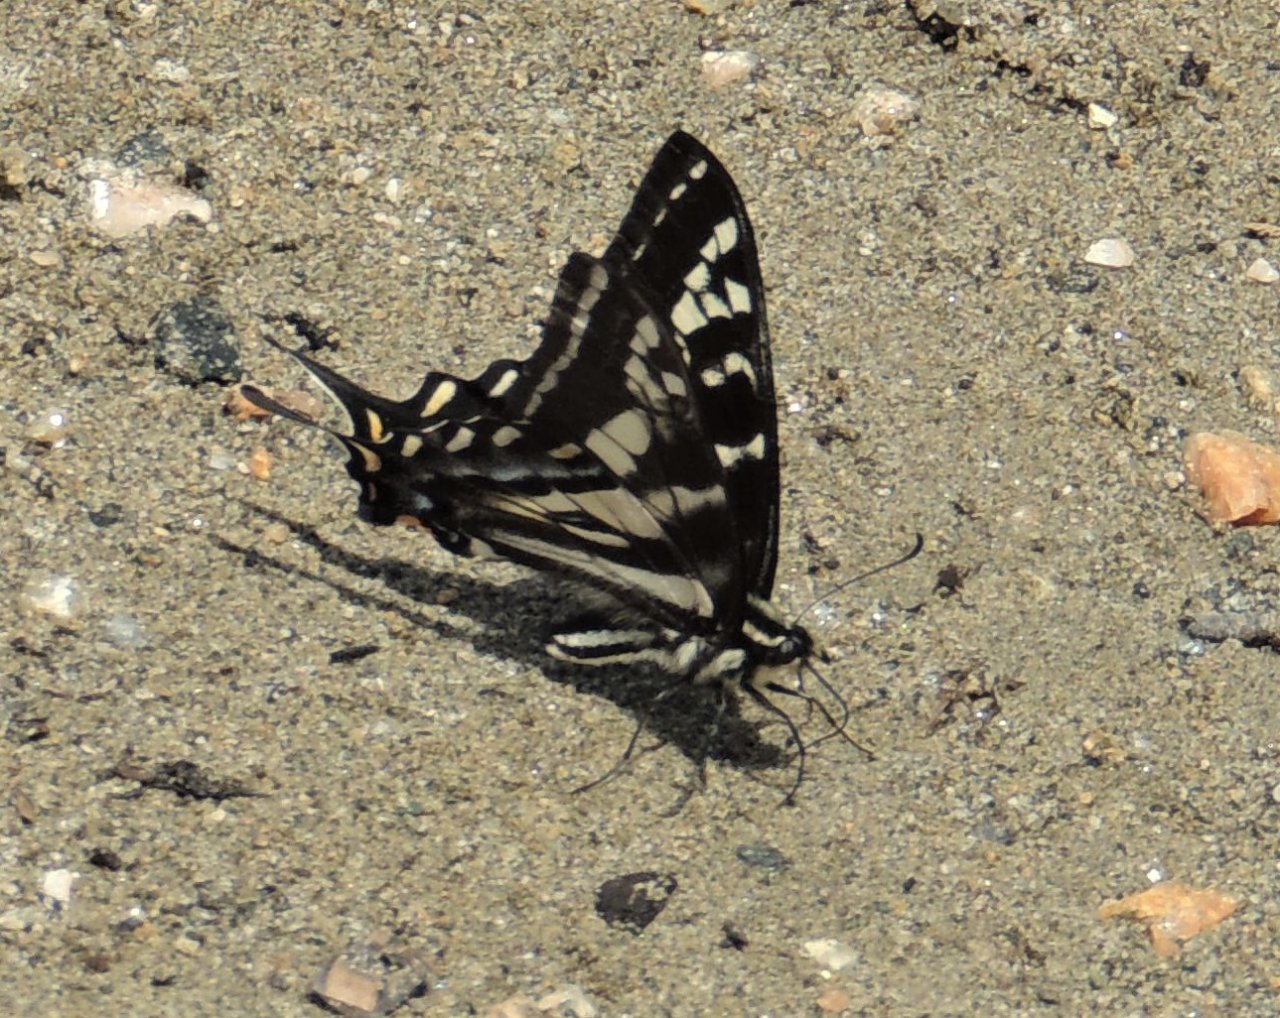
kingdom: Animalia
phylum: Arthropoda
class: Insecta
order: Lepidoptera
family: Papilionidae
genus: Pterourus
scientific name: Pterourus eurymedon
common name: Pale Swallowtail
